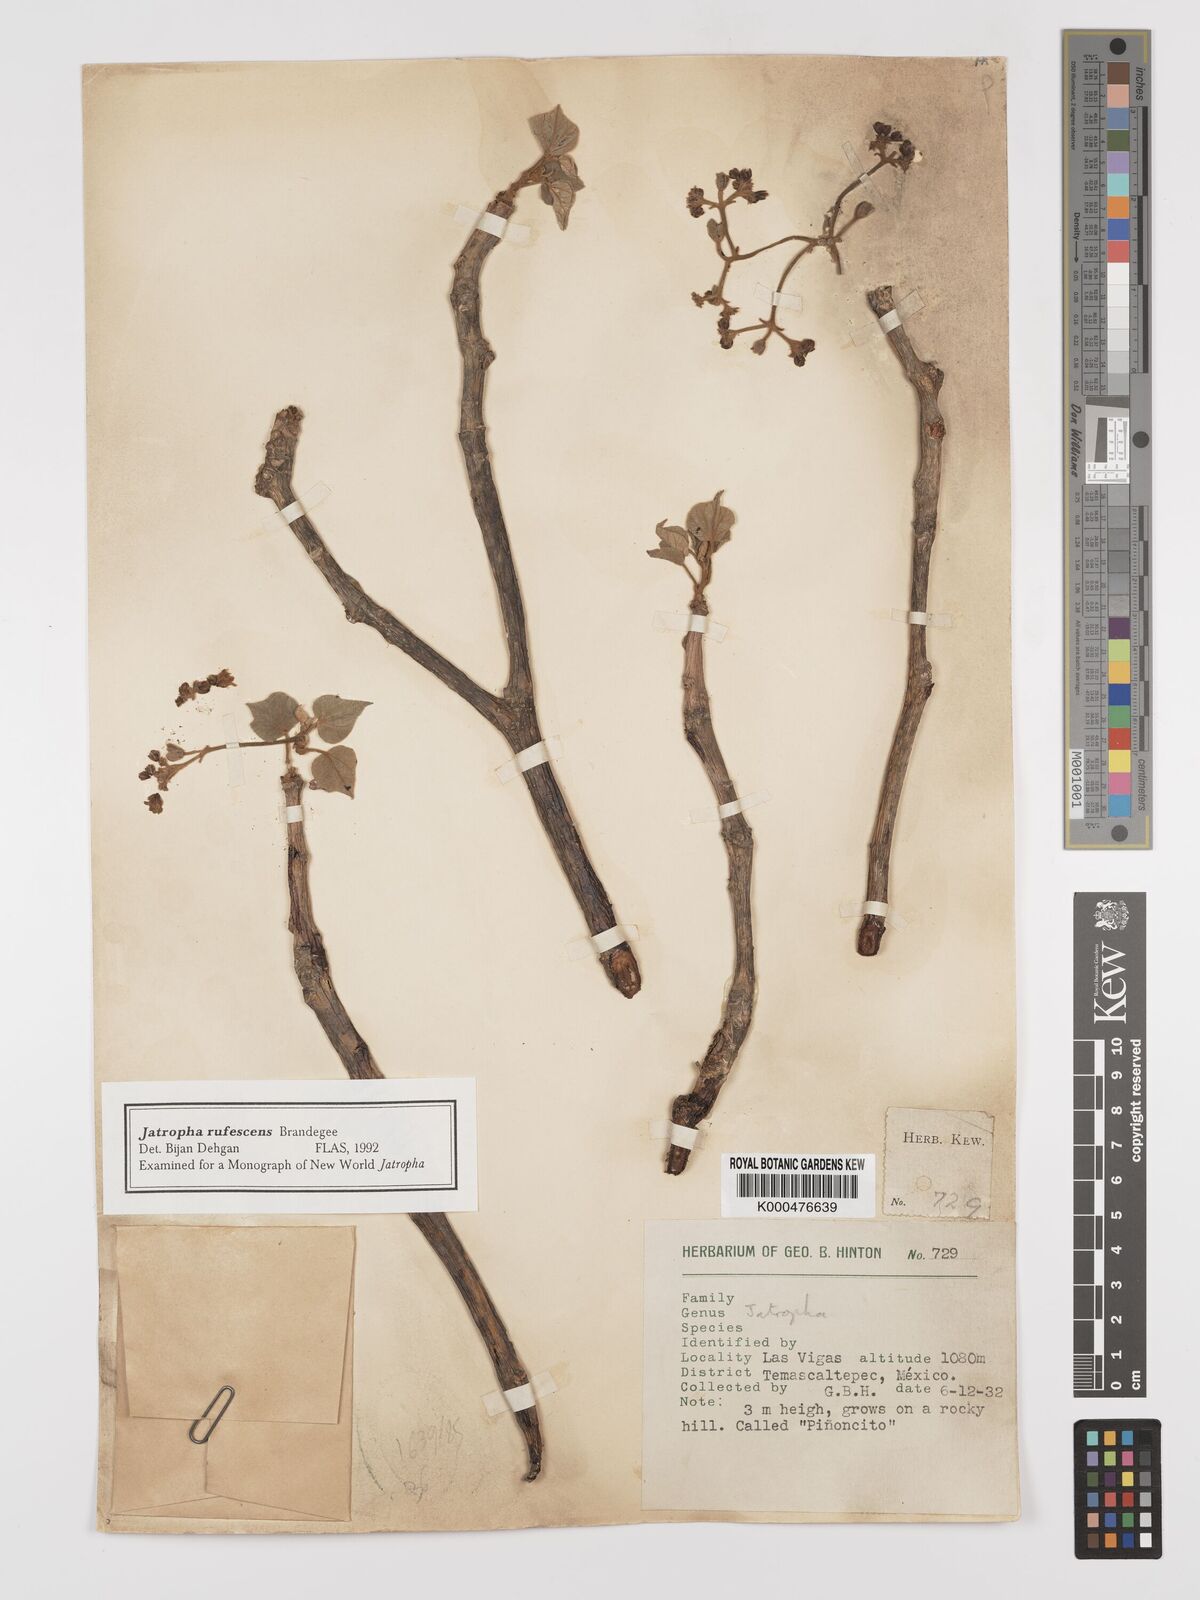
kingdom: Plantae
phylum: Tracheophyta
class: Magnoliopsida
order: Malpighiales
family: Euphorbiaceae
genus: Jatropha
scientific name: Jatropha rufescens
